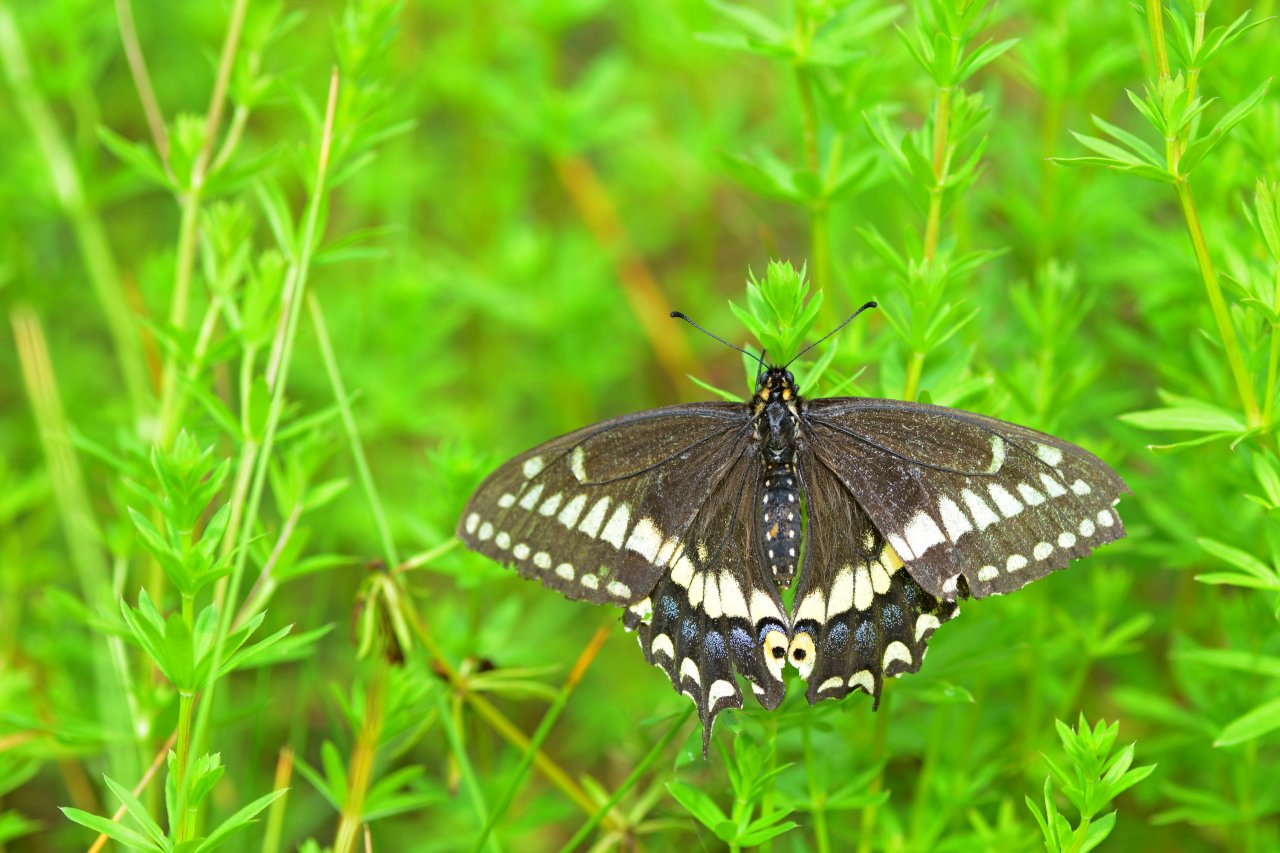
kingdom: Animalia
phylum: Arthropoda
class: Insecta
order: Lepidoptera
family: Papilionidae
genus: Papilio
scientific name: Papilio brevicauda
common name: Short-tailed Swallowtail
